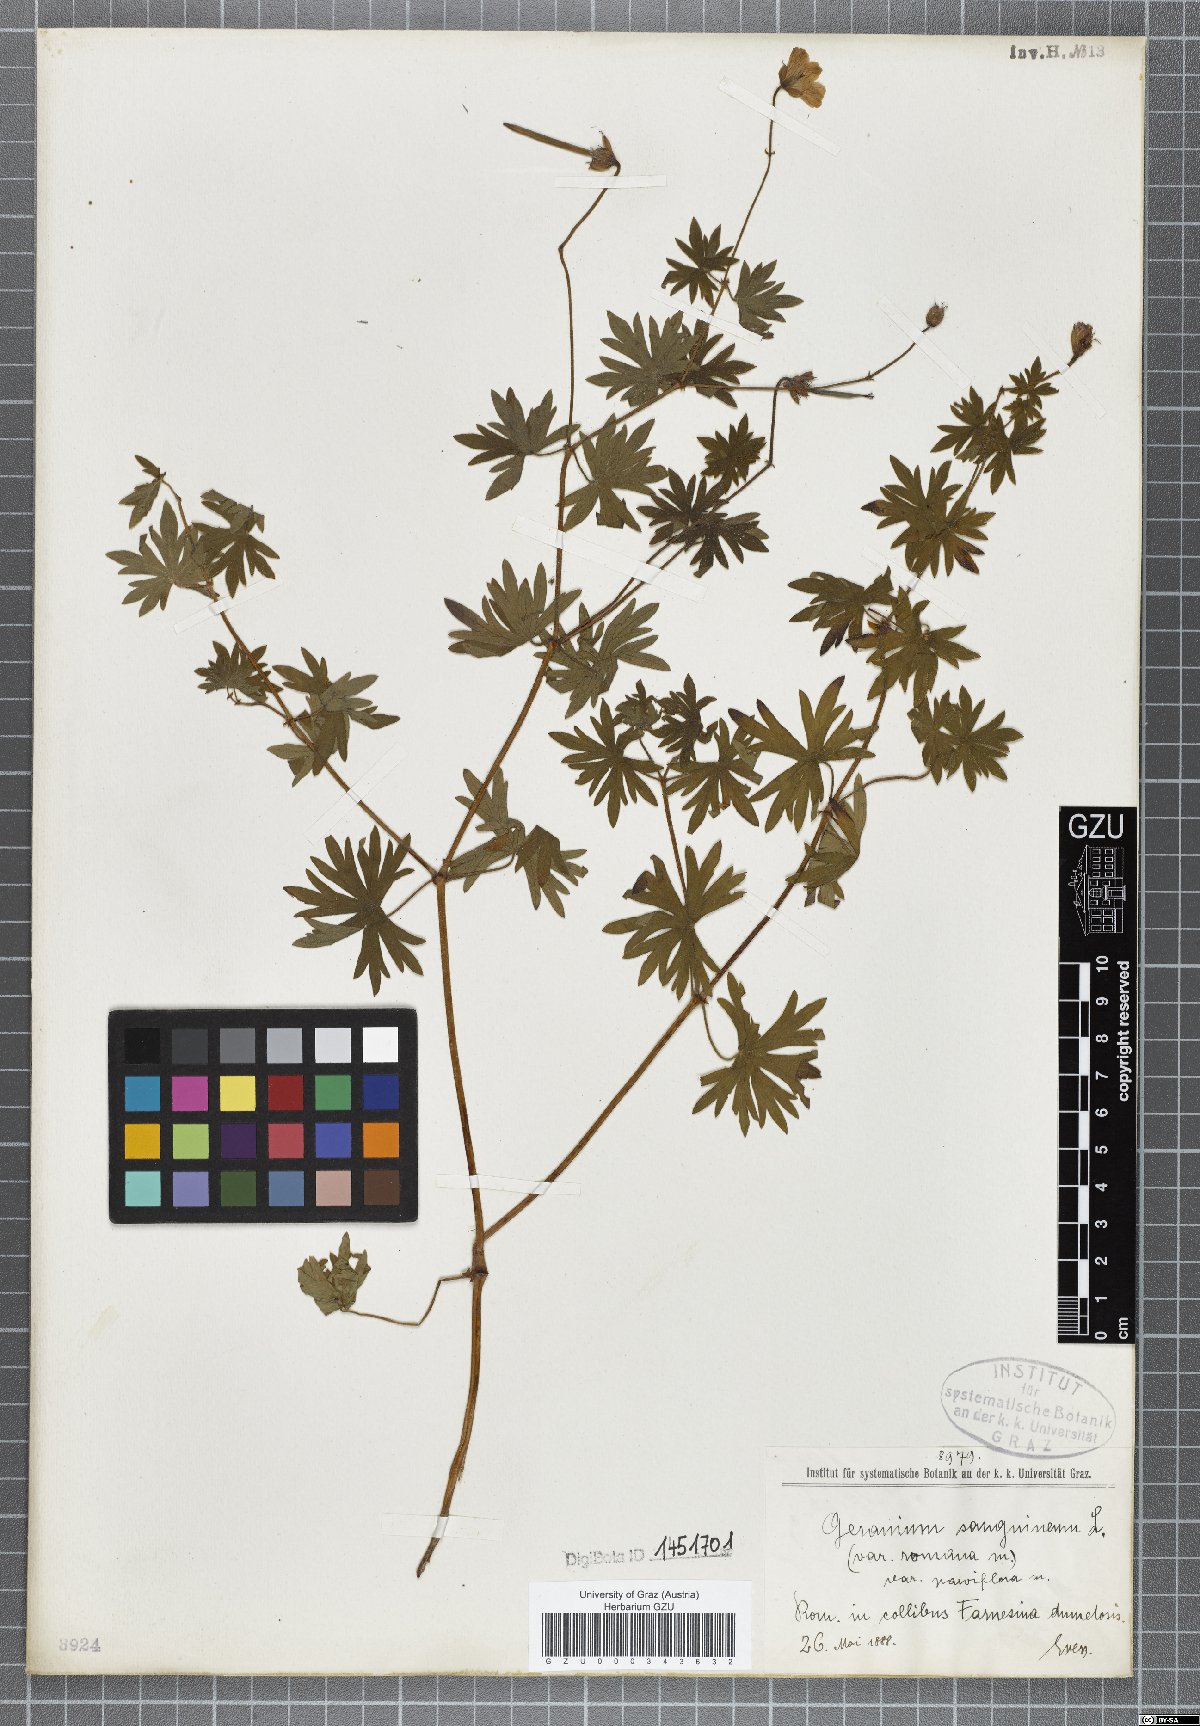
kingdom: Plantae
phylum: Tracheophyta
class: Magnoliopsida
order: Geraniales
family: Geraniaceae
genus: Geranium
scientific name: Geranium sanguineum
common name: Bloody crane's-bill
